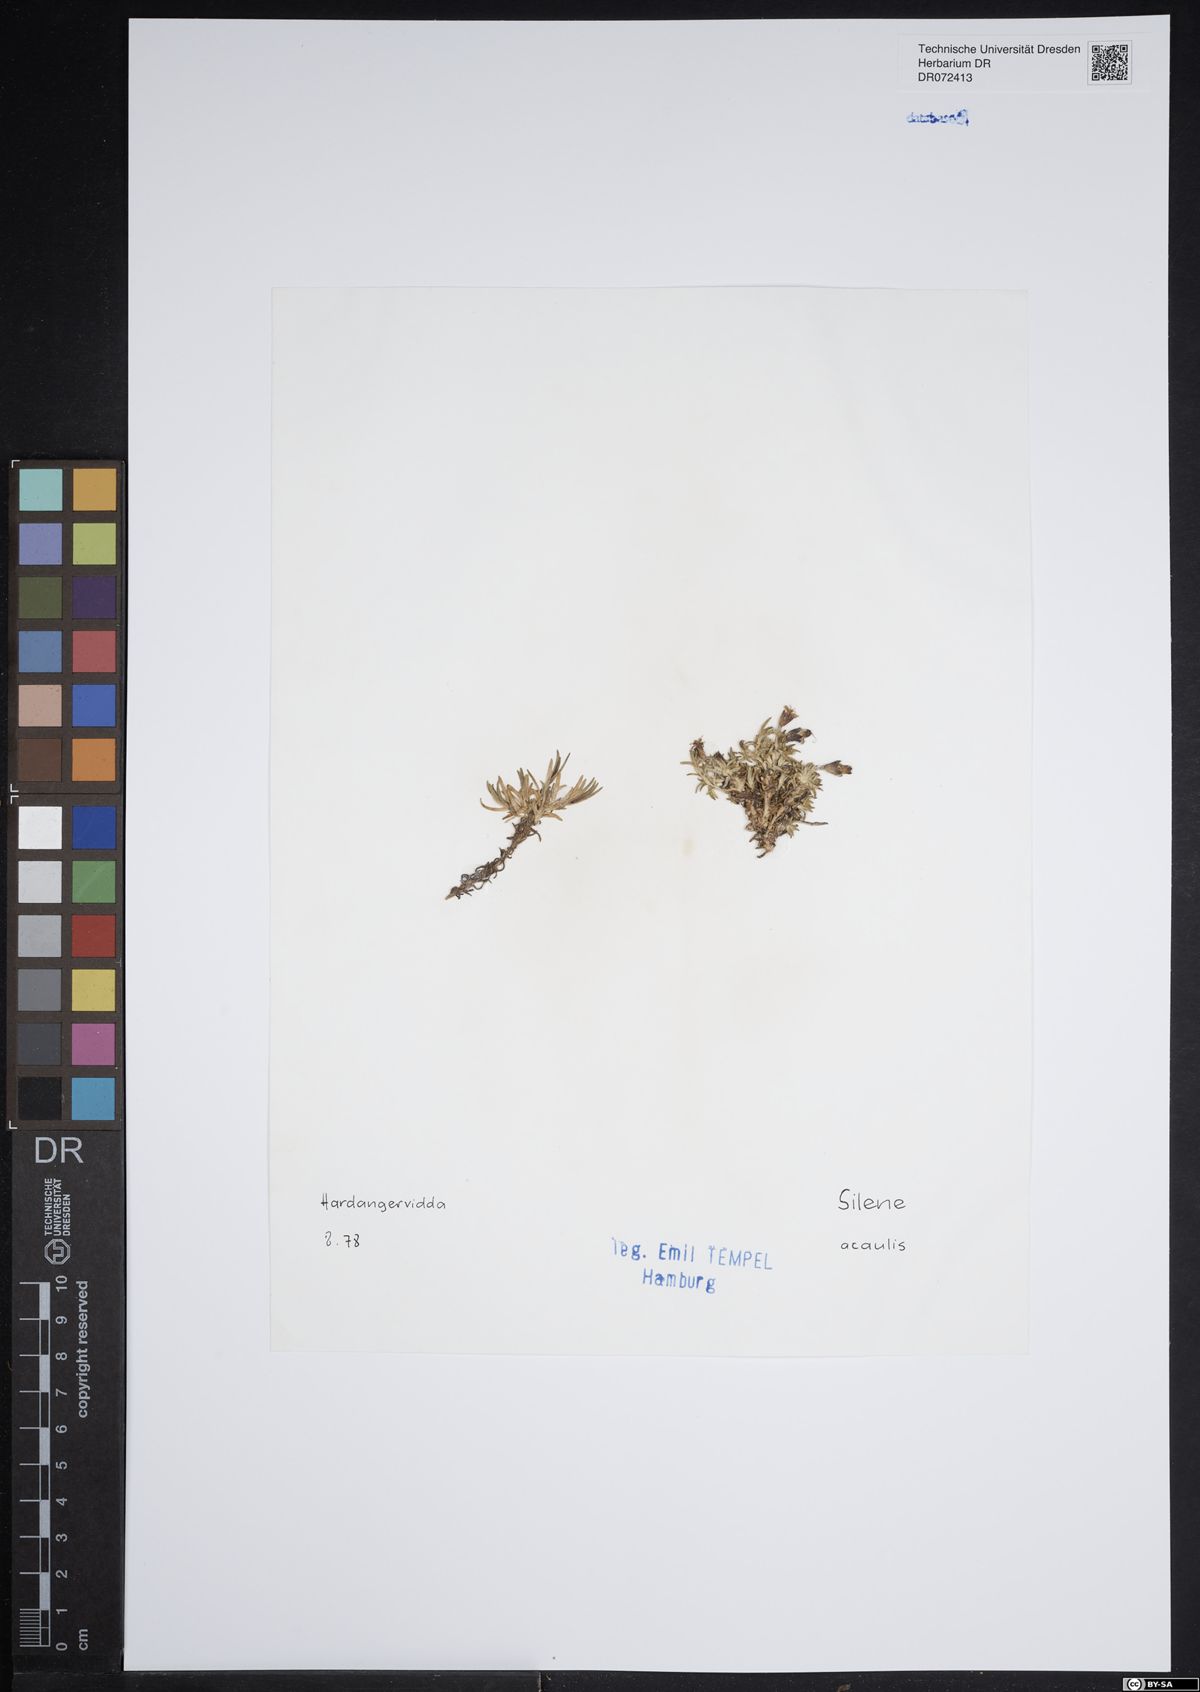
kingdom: Plantae
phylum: Tracheophyta
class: Magnoliopsida
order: Caryophyllales
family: Caryophyllaceae
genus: Silene
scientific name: Silene acaulis
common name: Moss campion
